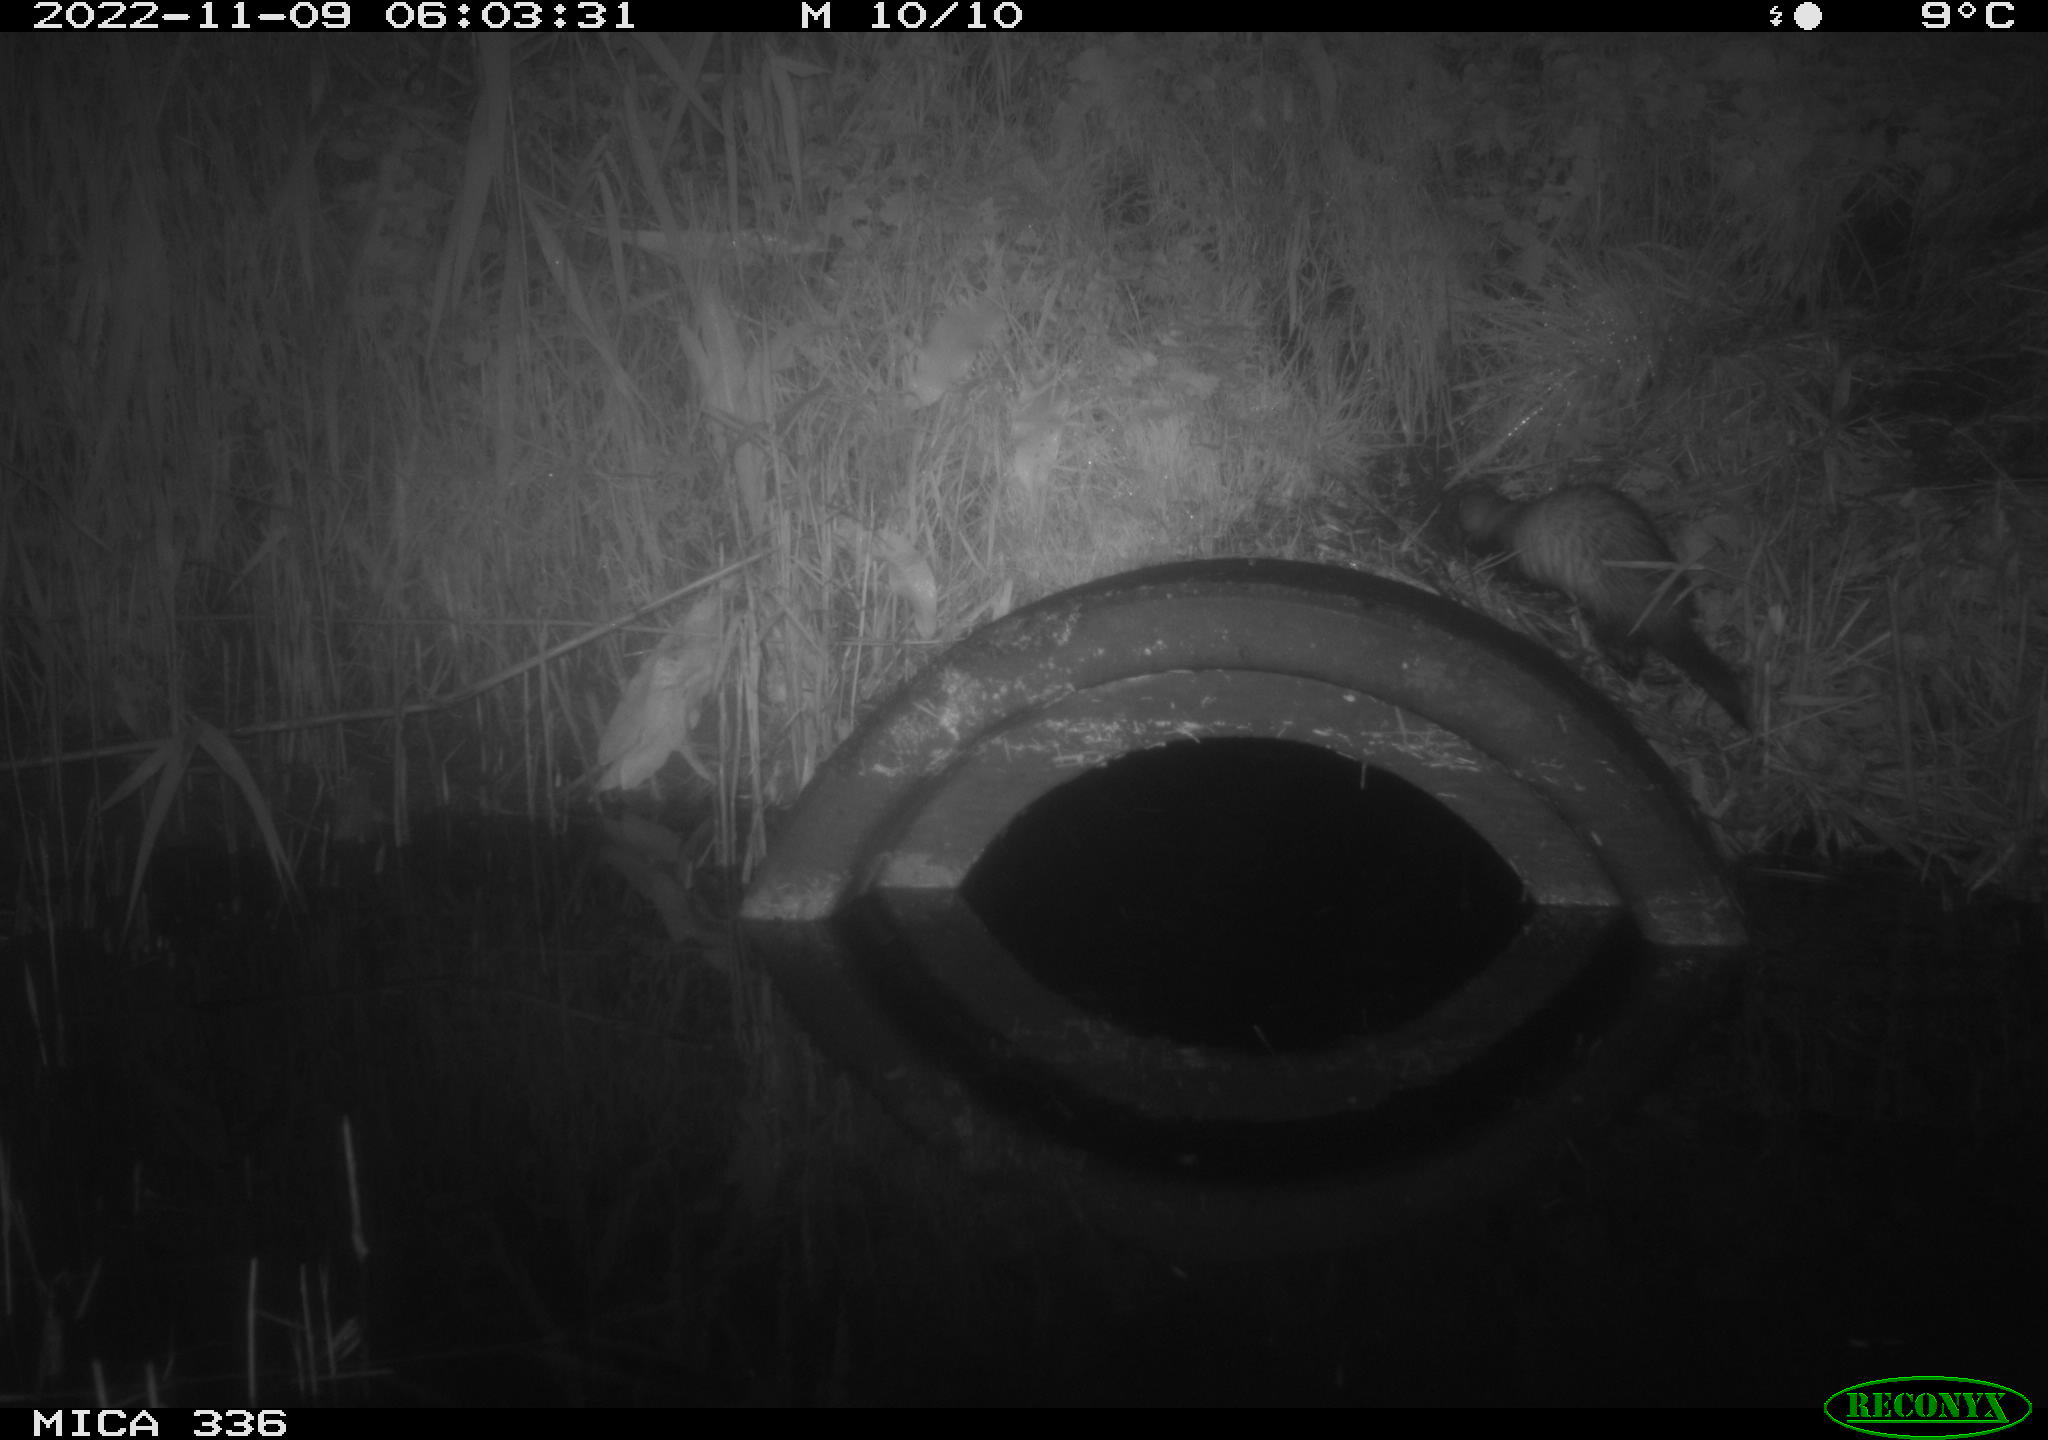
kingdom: Animalia
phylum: Chordata
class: Mammalia
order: Carnivora
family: Mustelidae
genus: Mustela
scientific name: Mustela putorius
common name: European polecat
